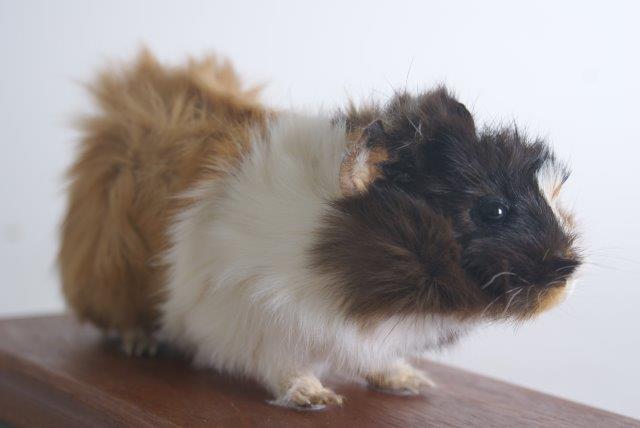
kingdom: Animalia
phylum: Chordata
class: Mammalia
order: Rodentia
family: Caviidae
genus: Cavia
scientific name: Cavia aperea
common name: Brazilian Guinea Pig
